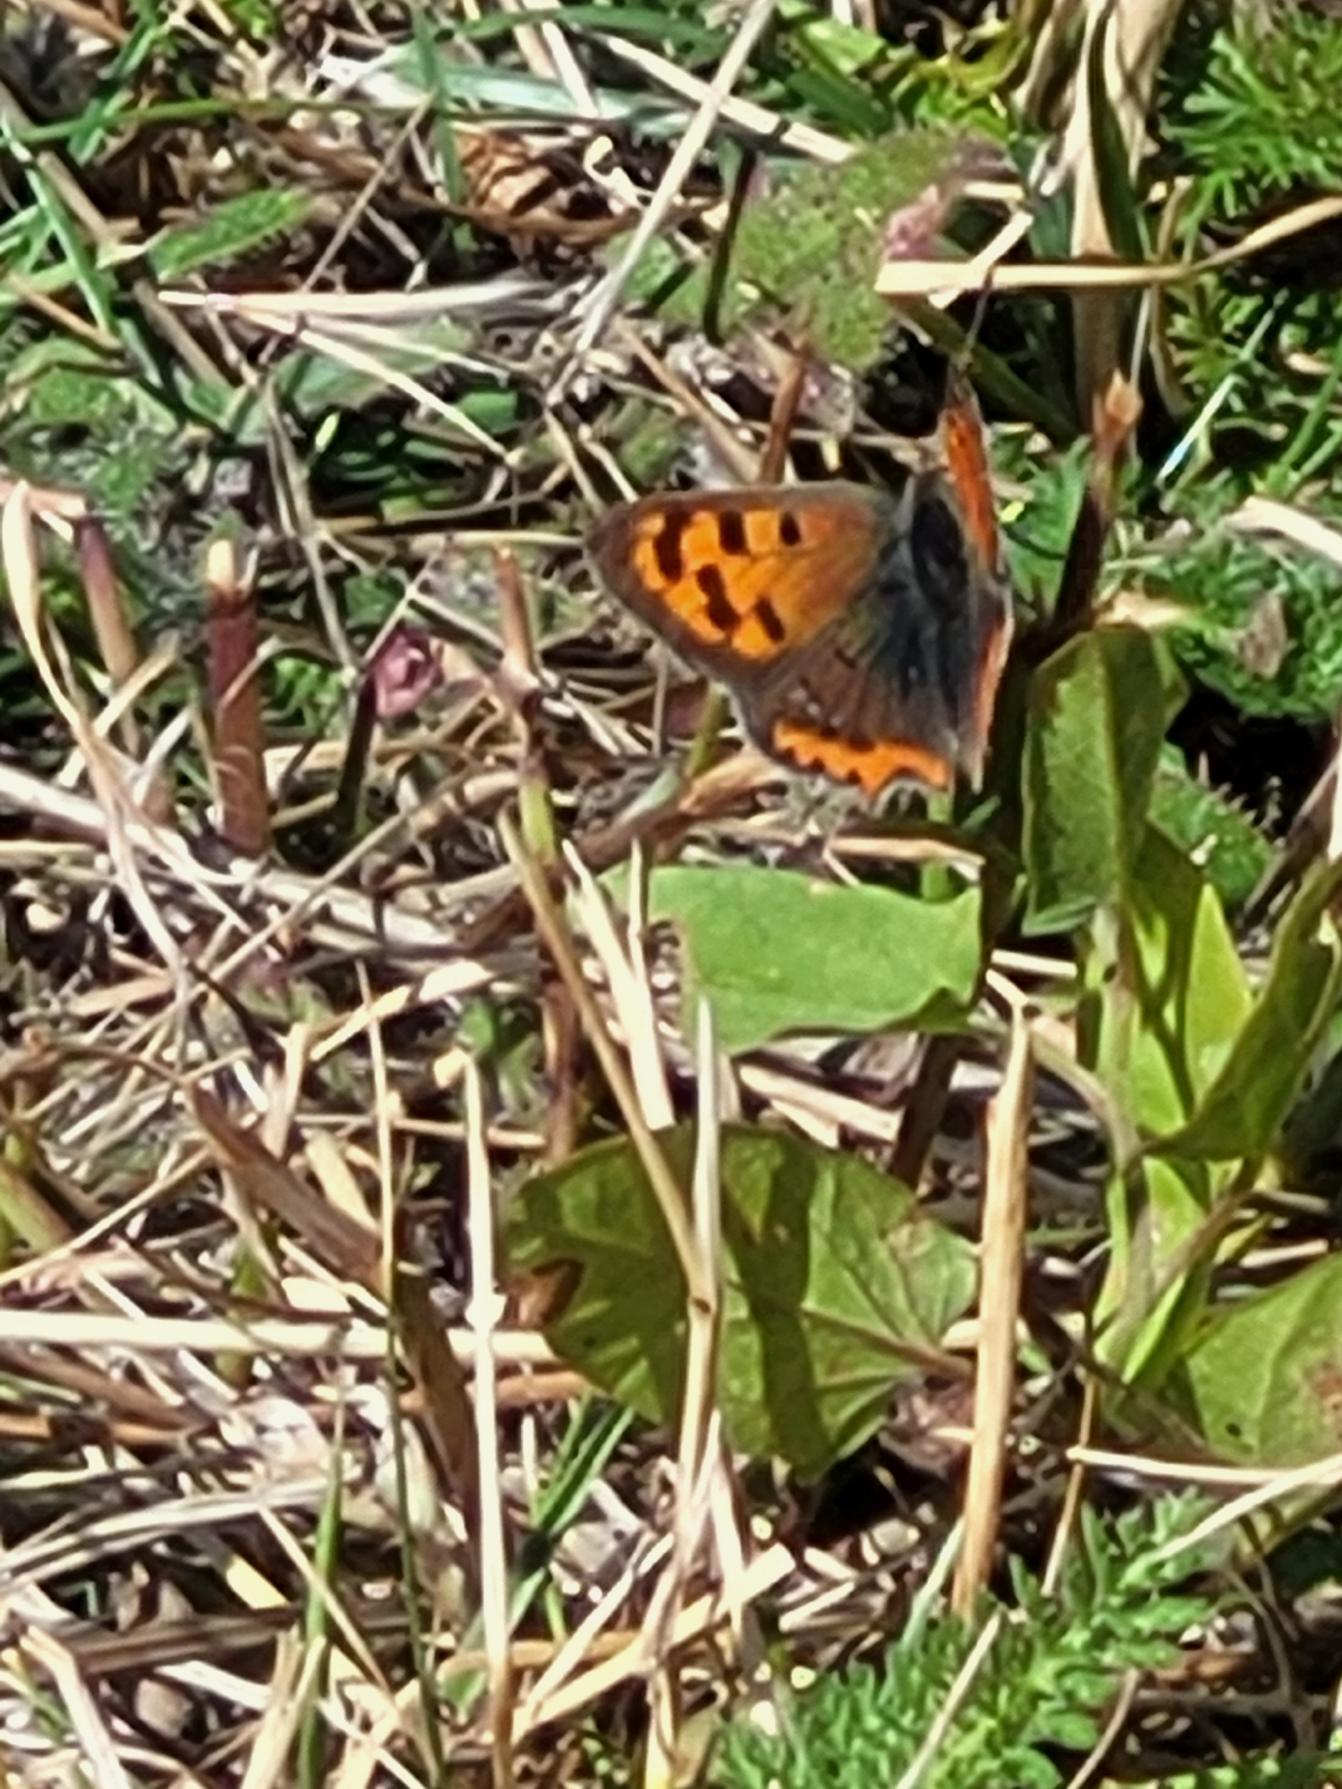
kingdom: Animalia
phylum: Arthropoda
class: Insecta
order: Lepidoptera
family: Lycaenidae
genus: Lycaena
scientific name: Lycaena phlaeas
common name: Lille ildfugl
